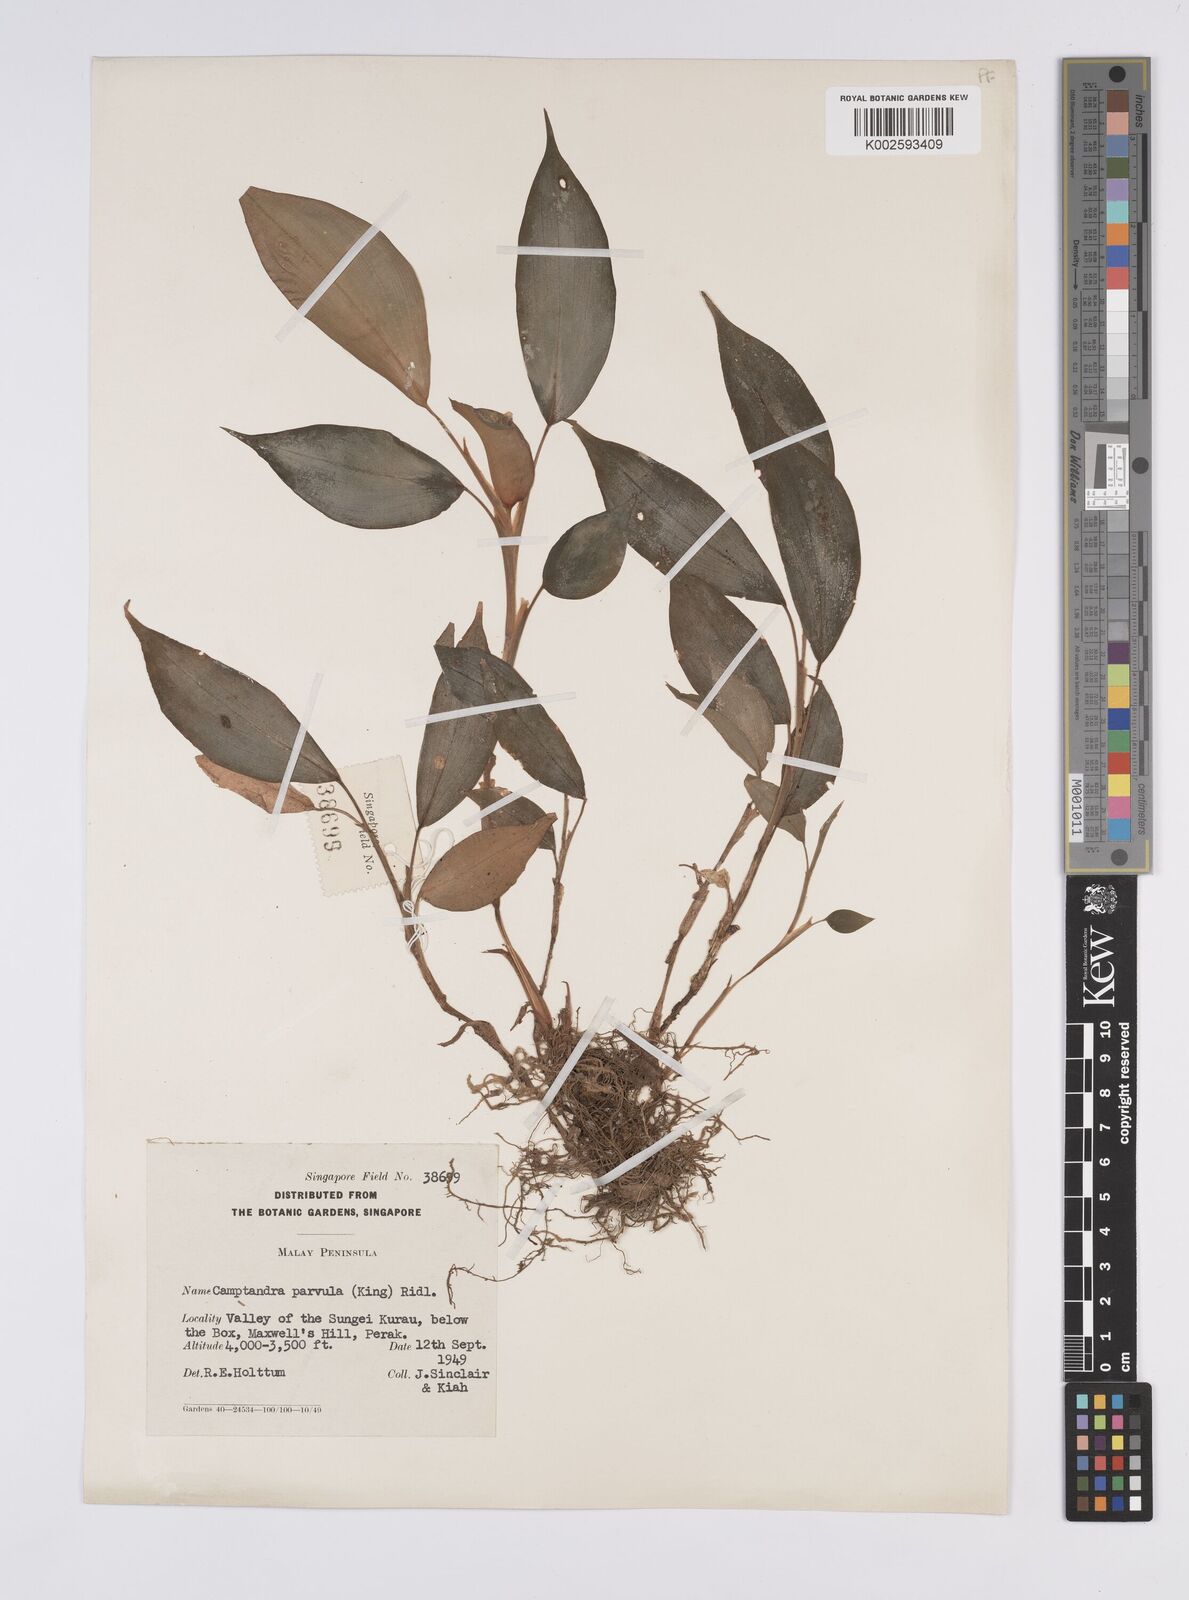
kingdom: Plantae
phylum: Tracheophyta
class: Liliopsida
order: Zingiberales
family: Zingiberaceae
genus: Camptandra
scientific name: Camptandra parvula
